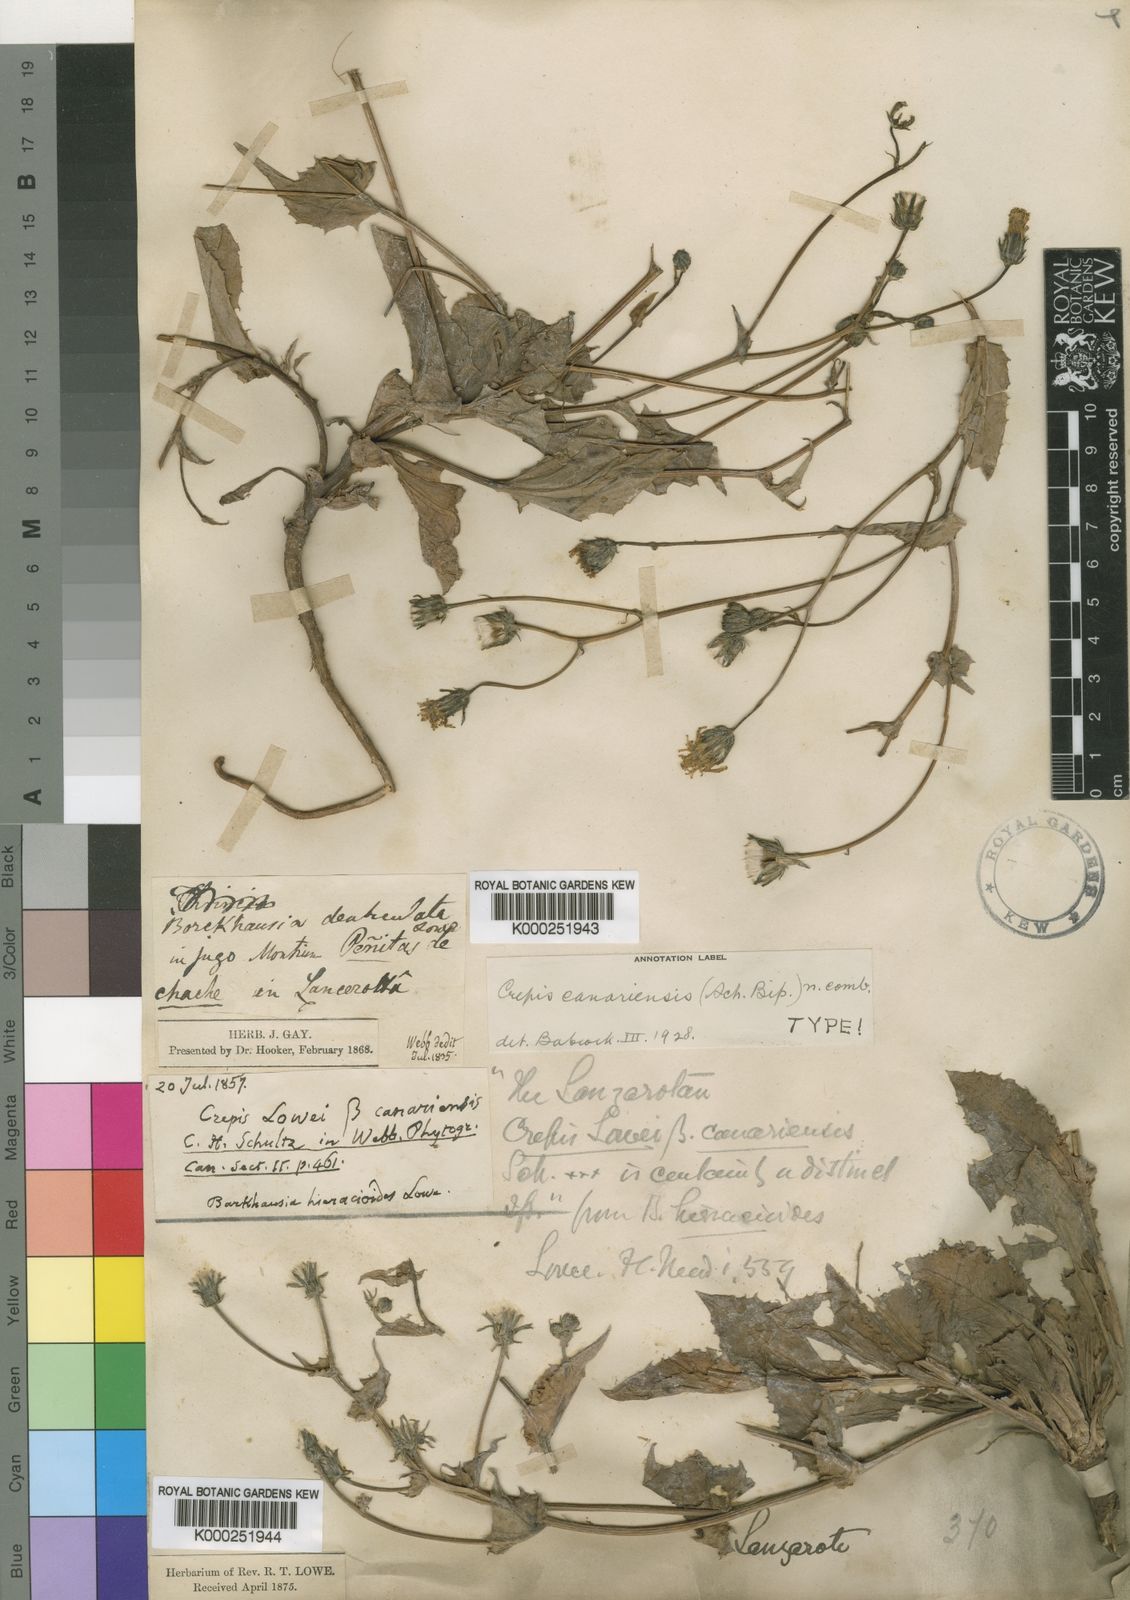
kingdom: Plantae
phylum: Tracheophyta
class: Magnoliopsida
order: Asterales
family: Asteraceae
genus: Crepis
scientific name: Crepis
